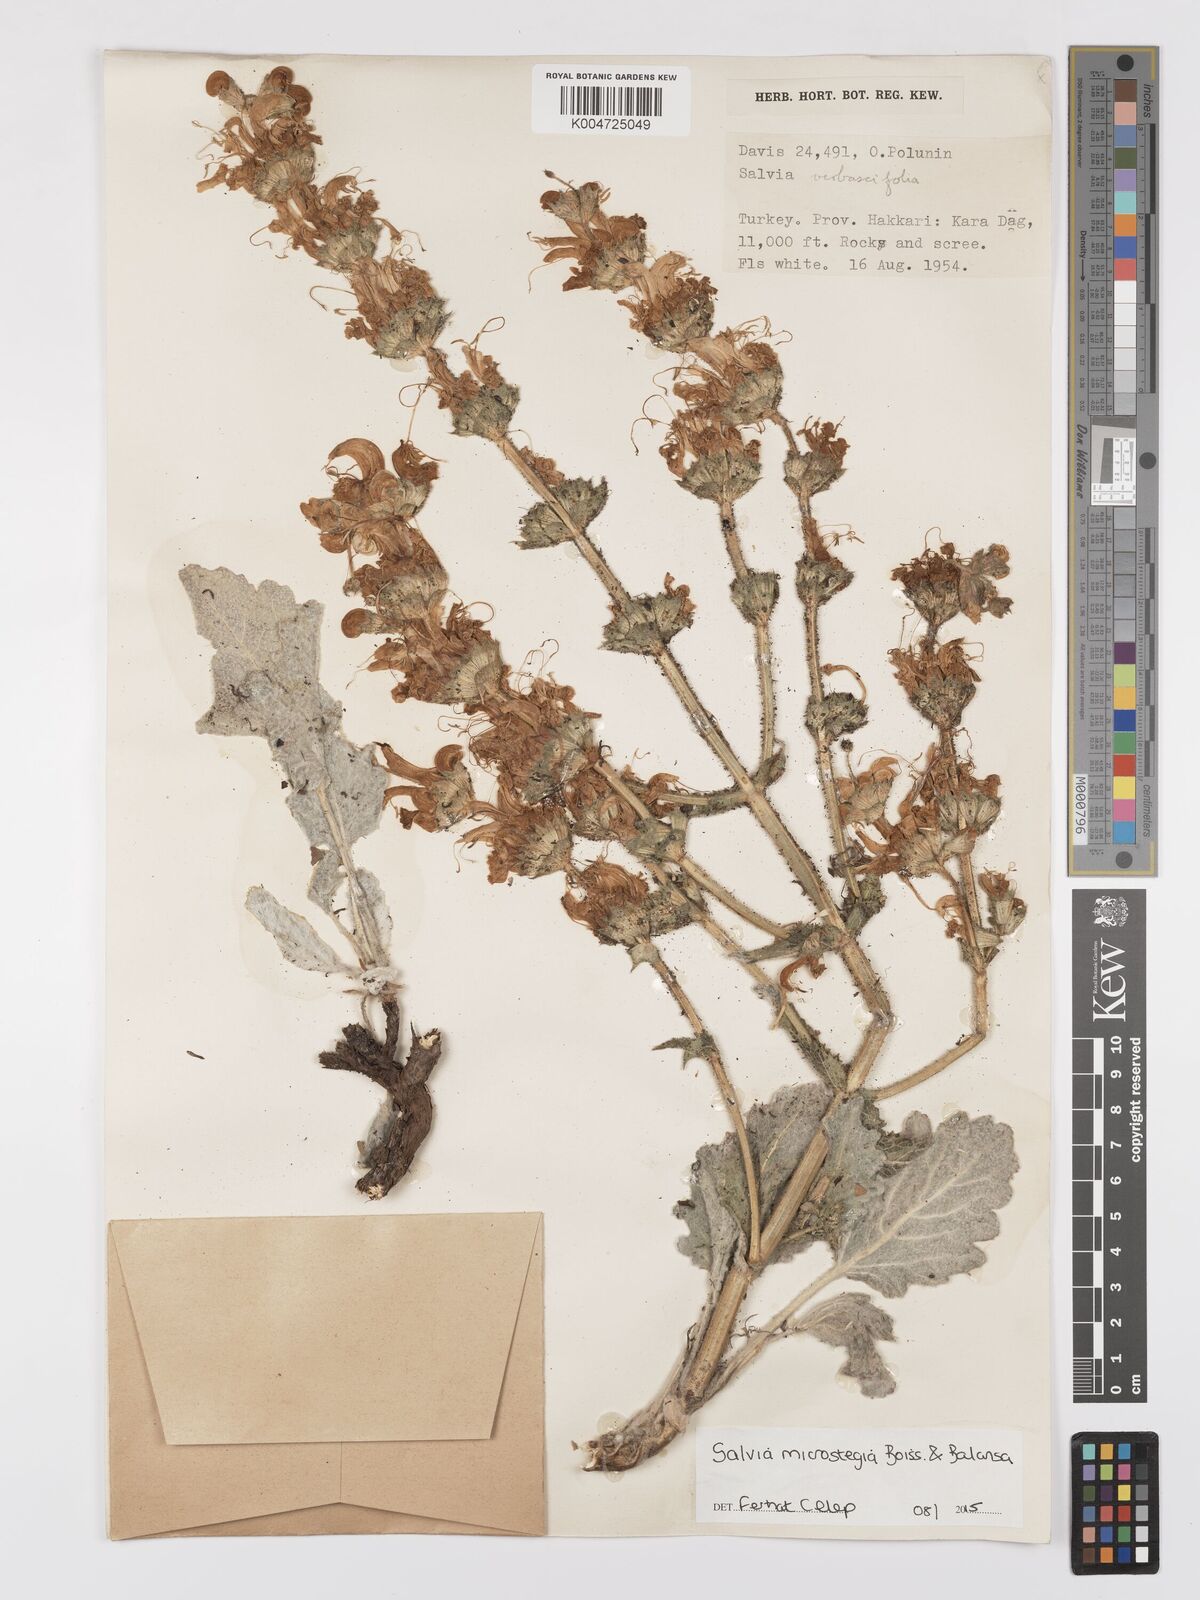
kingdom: Plantae
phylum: Tracheophyta
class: Magnoliopsida
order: Lamiales
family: Lamiaceae
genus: Salvia
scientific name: Salvia microstegia
